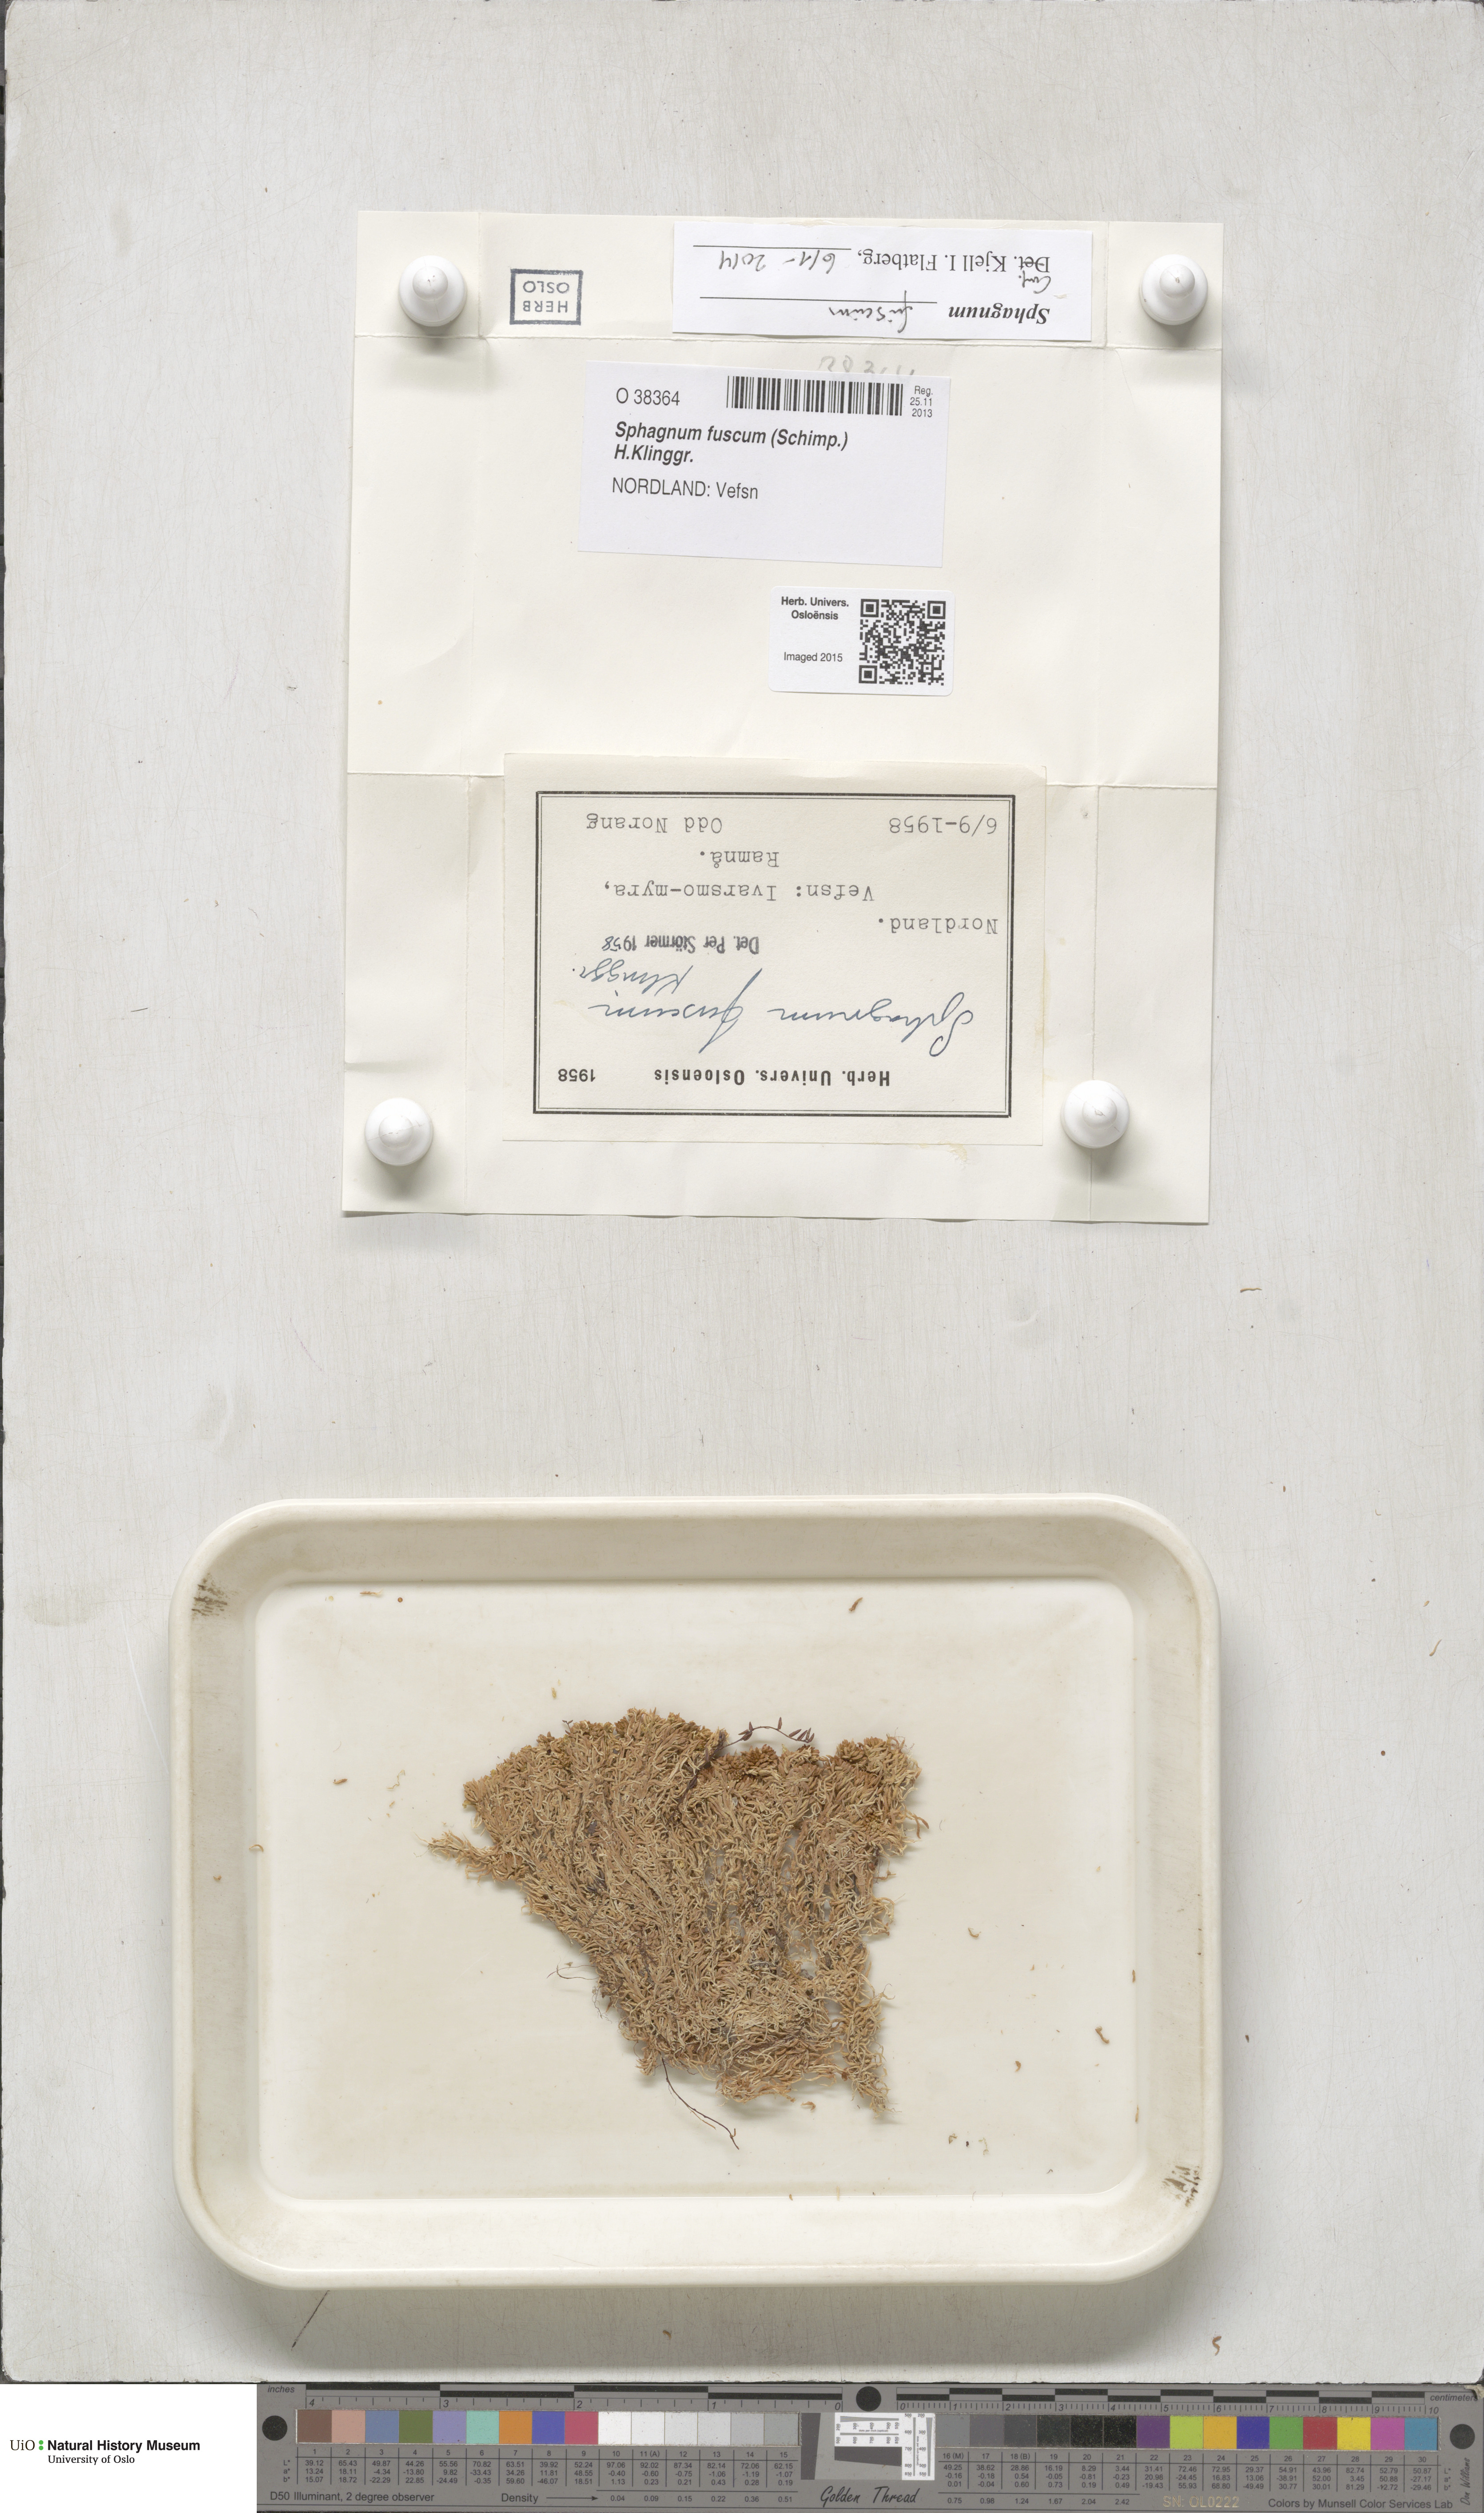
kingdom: Plantae
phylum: Bryophyta
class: Sphagnopsida
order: Sphagnales
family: Sphagnaceae
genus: Sphagnum
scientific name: Sphagnum fuscum
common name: Brown peat moss
